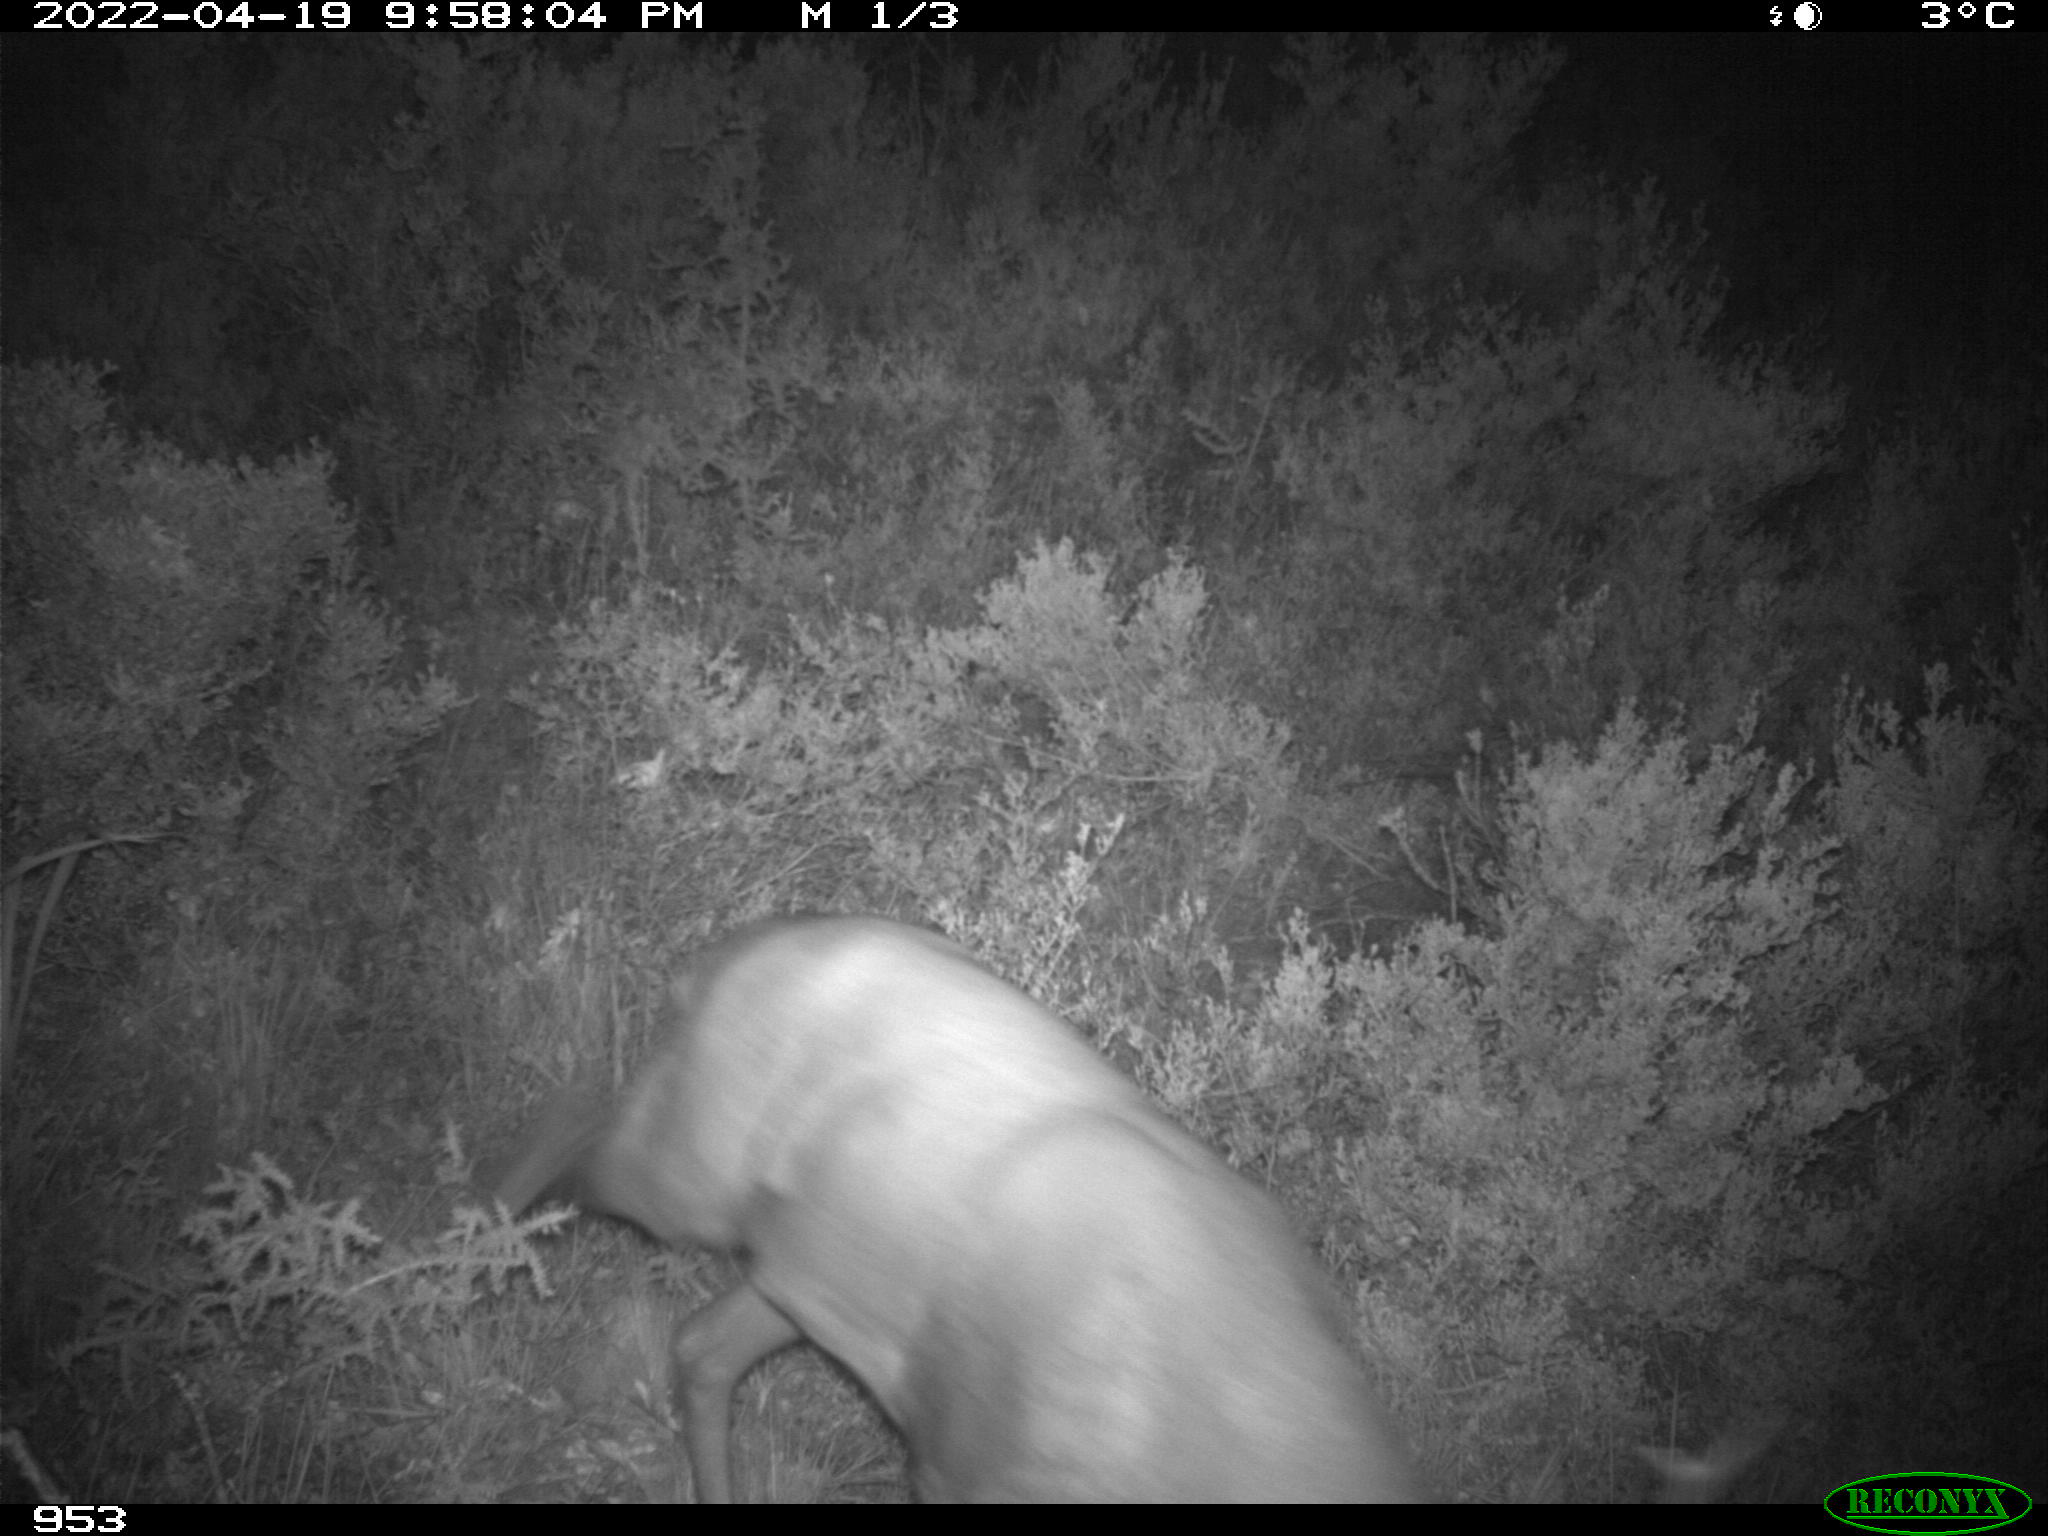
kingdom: Animalia
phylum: Chordata
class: Mammalia
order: Artiodactyla
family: Cervidae
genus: Capreolus
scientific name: Capreolus capreolus
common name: Western roe deer
